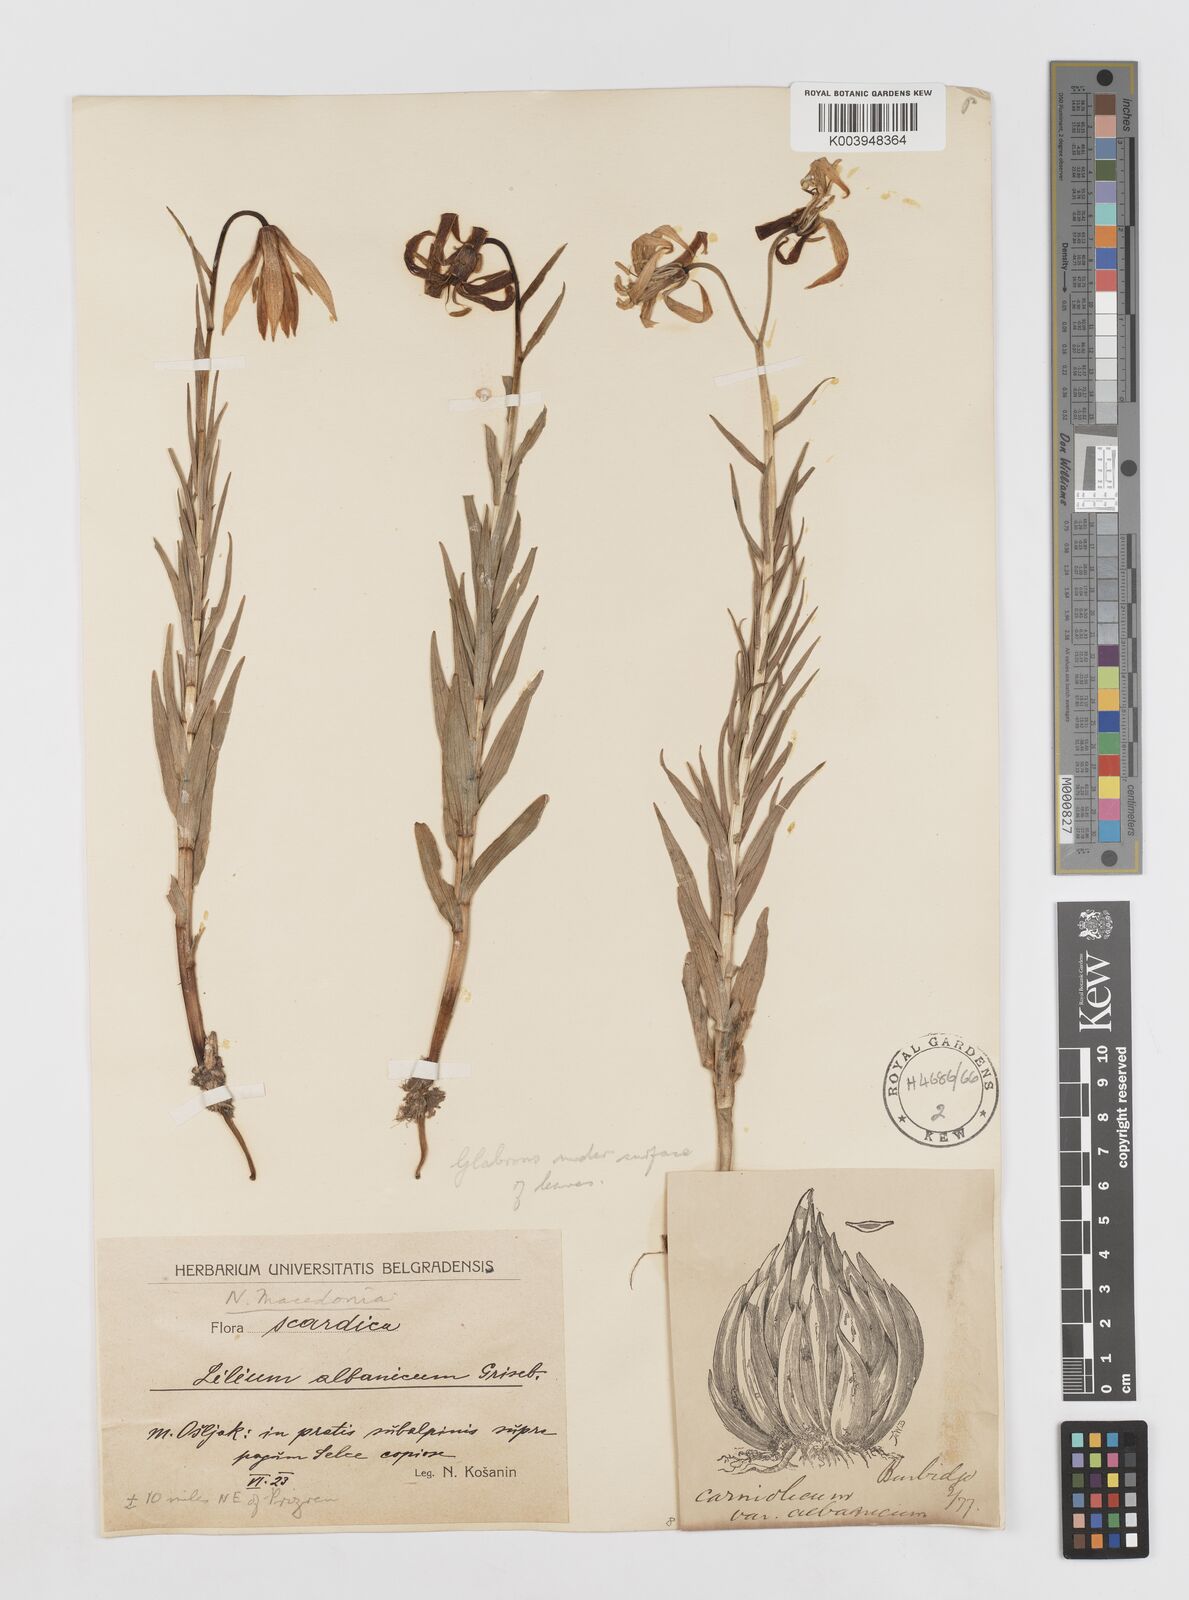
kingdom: Plantae
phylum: Tracheophyta
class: Liliopsida
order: Liliales
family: Liliaceae
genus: Lilium
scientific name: Lilium carniolicum
